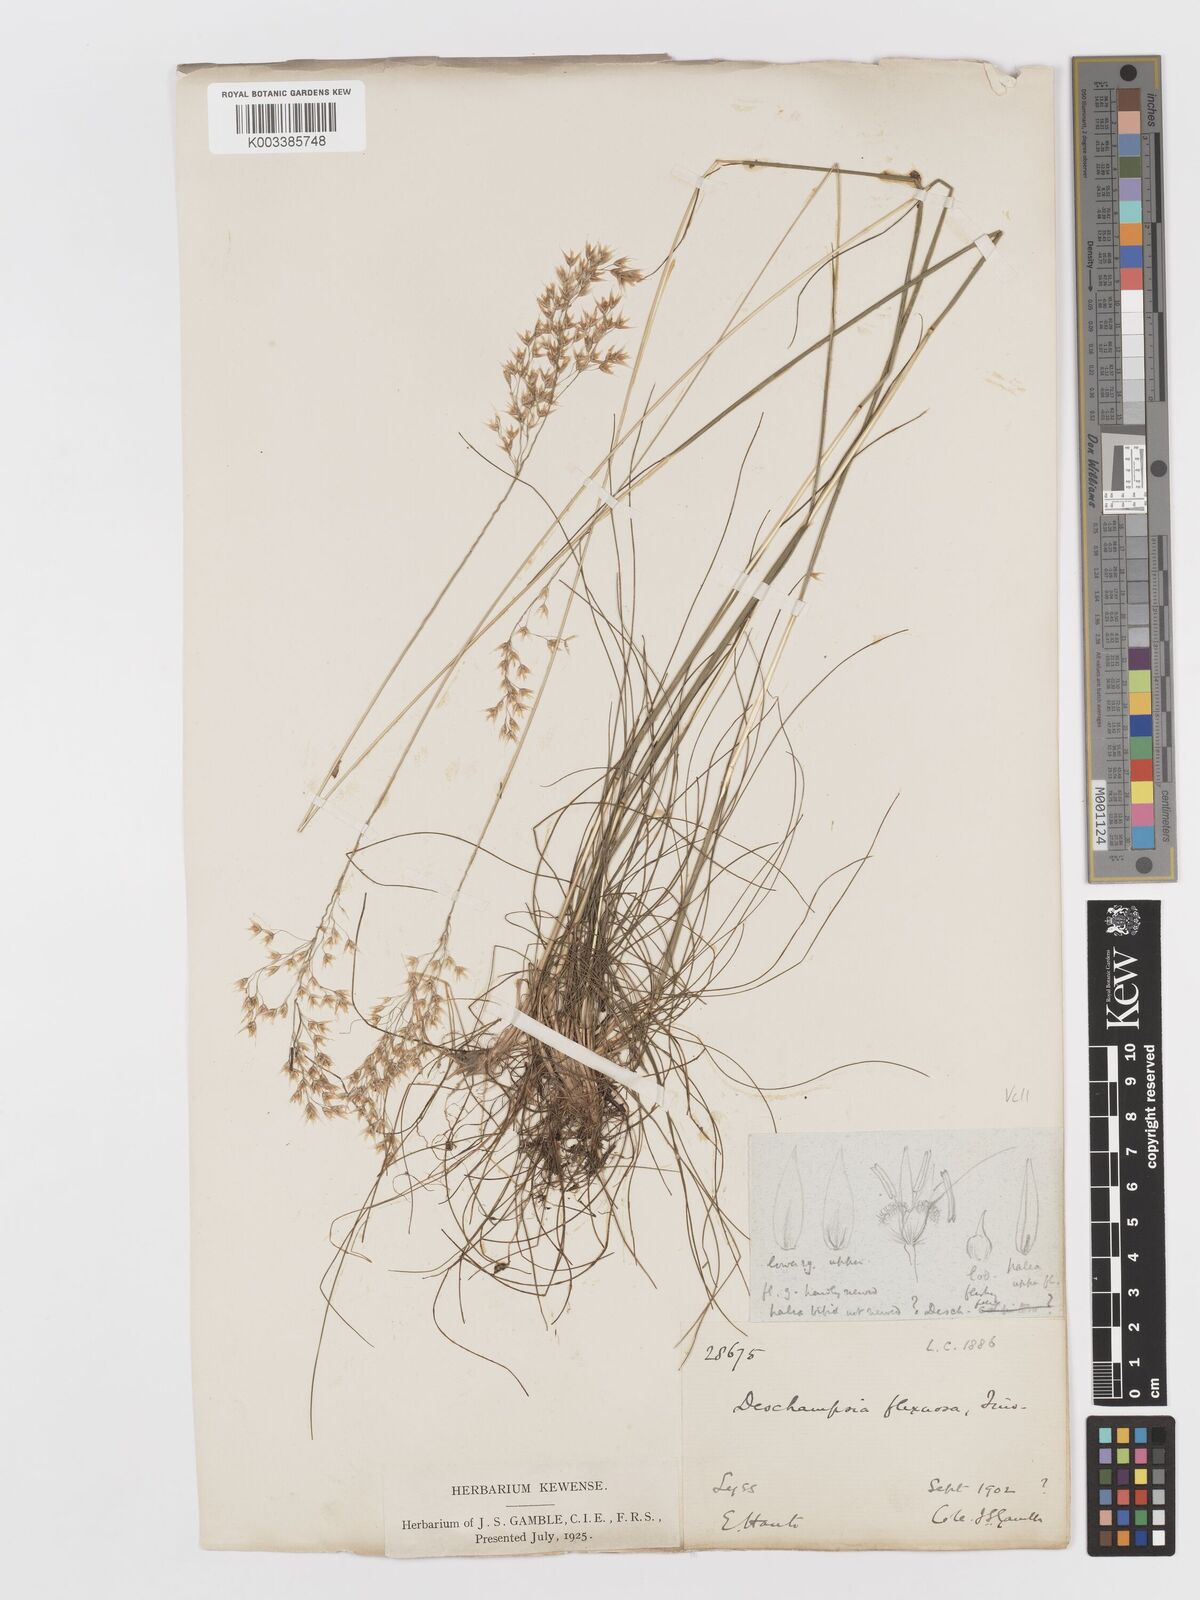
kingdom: Plantae
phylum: Tracheophyta
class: Liliopsida
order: Poales
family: Poaceae
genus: Avenella
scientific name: Avenella flexuosa
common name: Wavy hairgrass
